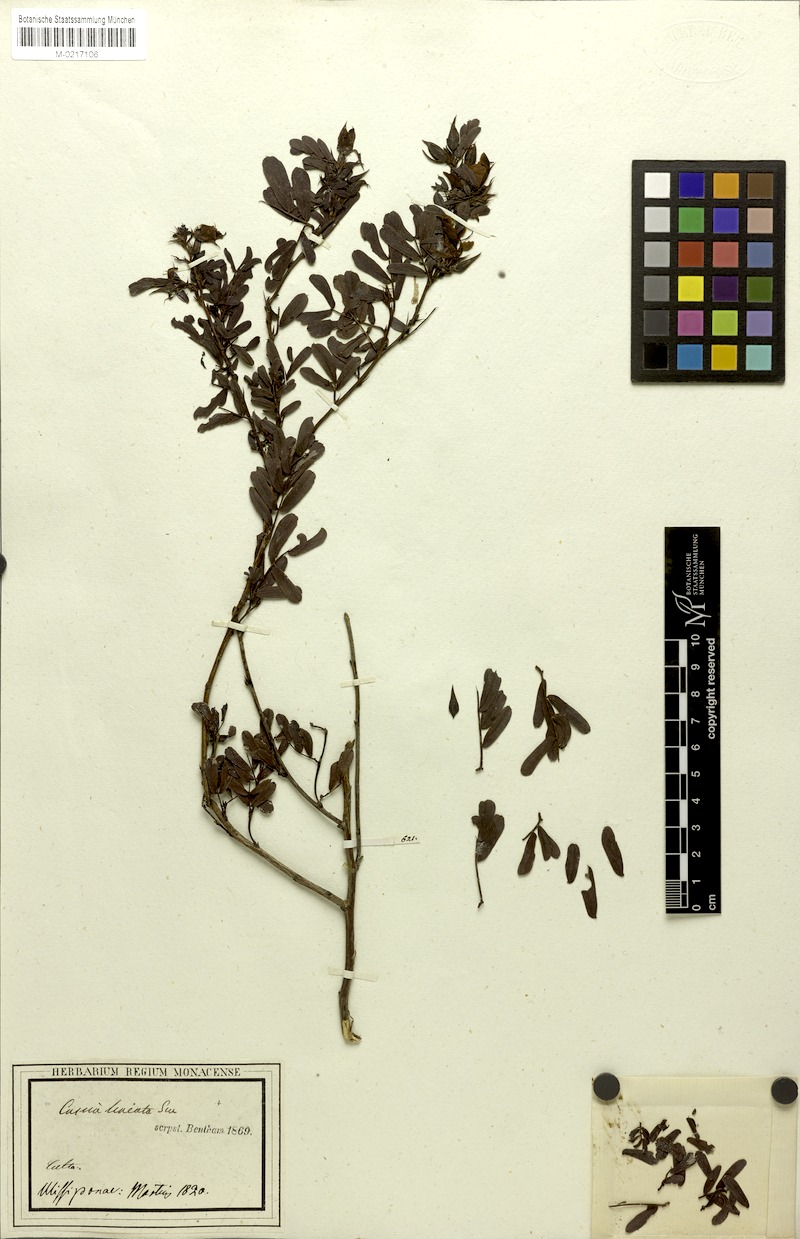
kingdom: Plantae
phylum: Tracheophyta
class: Magnoliopsida
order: Fabales
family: Fabaceae
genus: Chamaecrista
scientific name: Chamaecrista lineata
